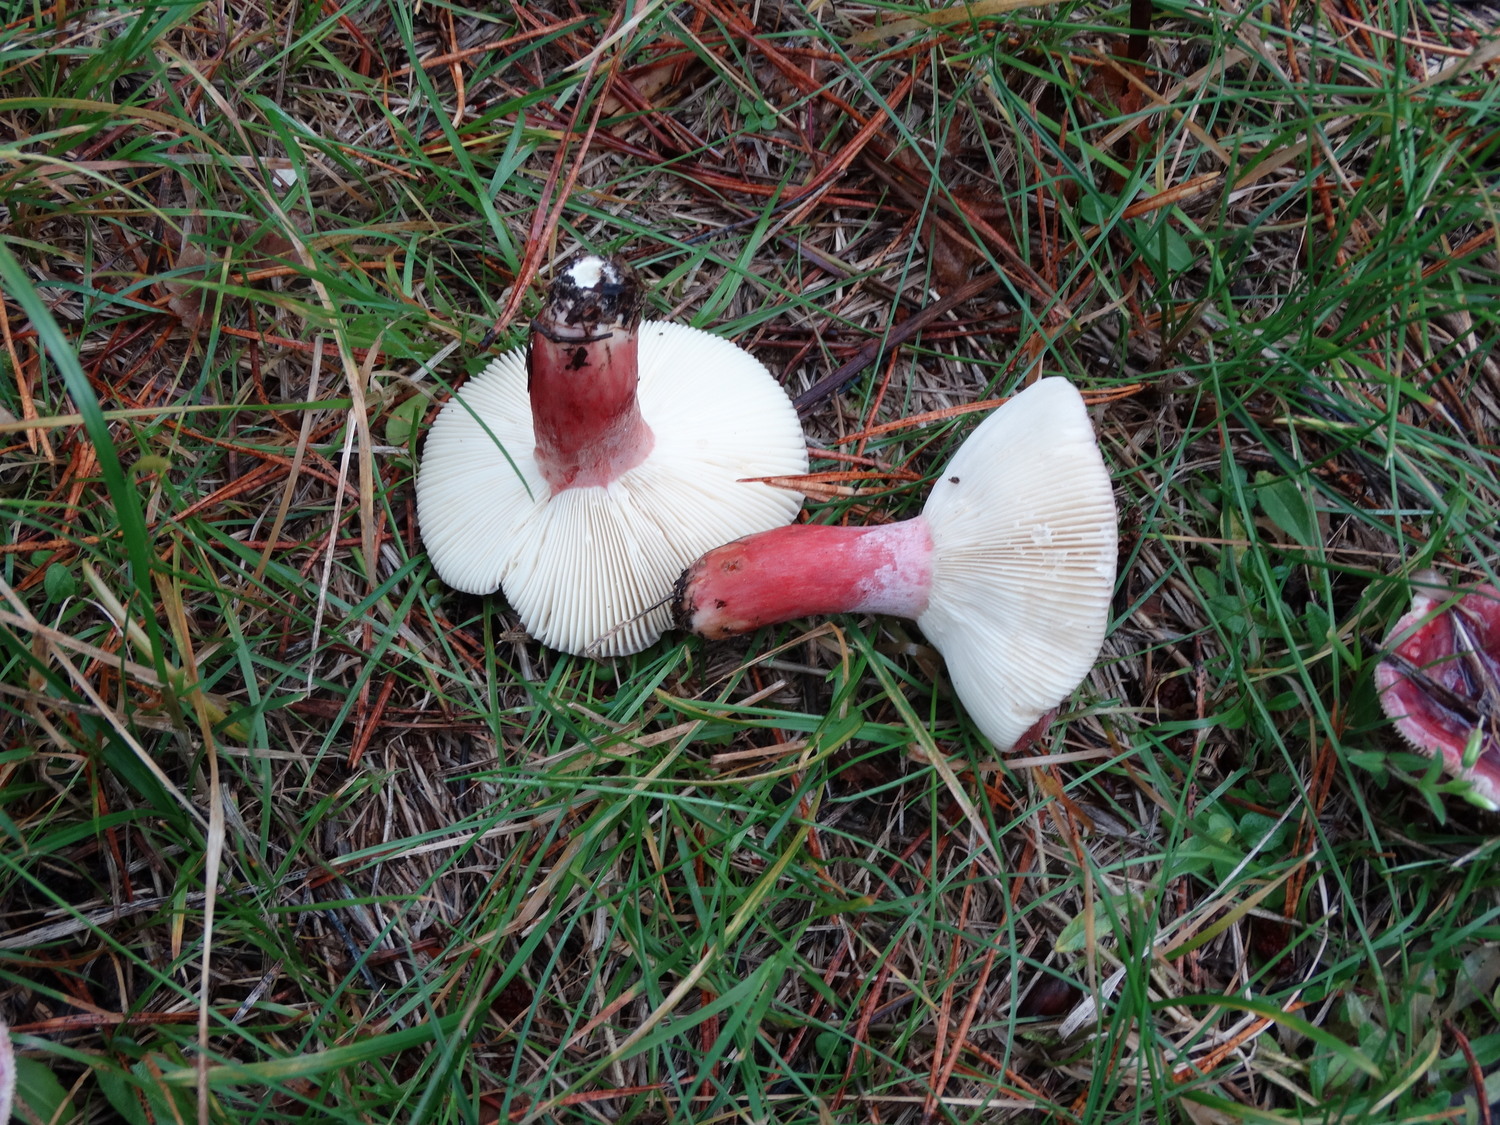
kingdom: Fungi
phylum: Basidiomycota
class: Agaricomycetes
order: Russulales
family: Russulaceae
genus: Russula
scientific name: Russula queletii
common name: Quélets skørhat
